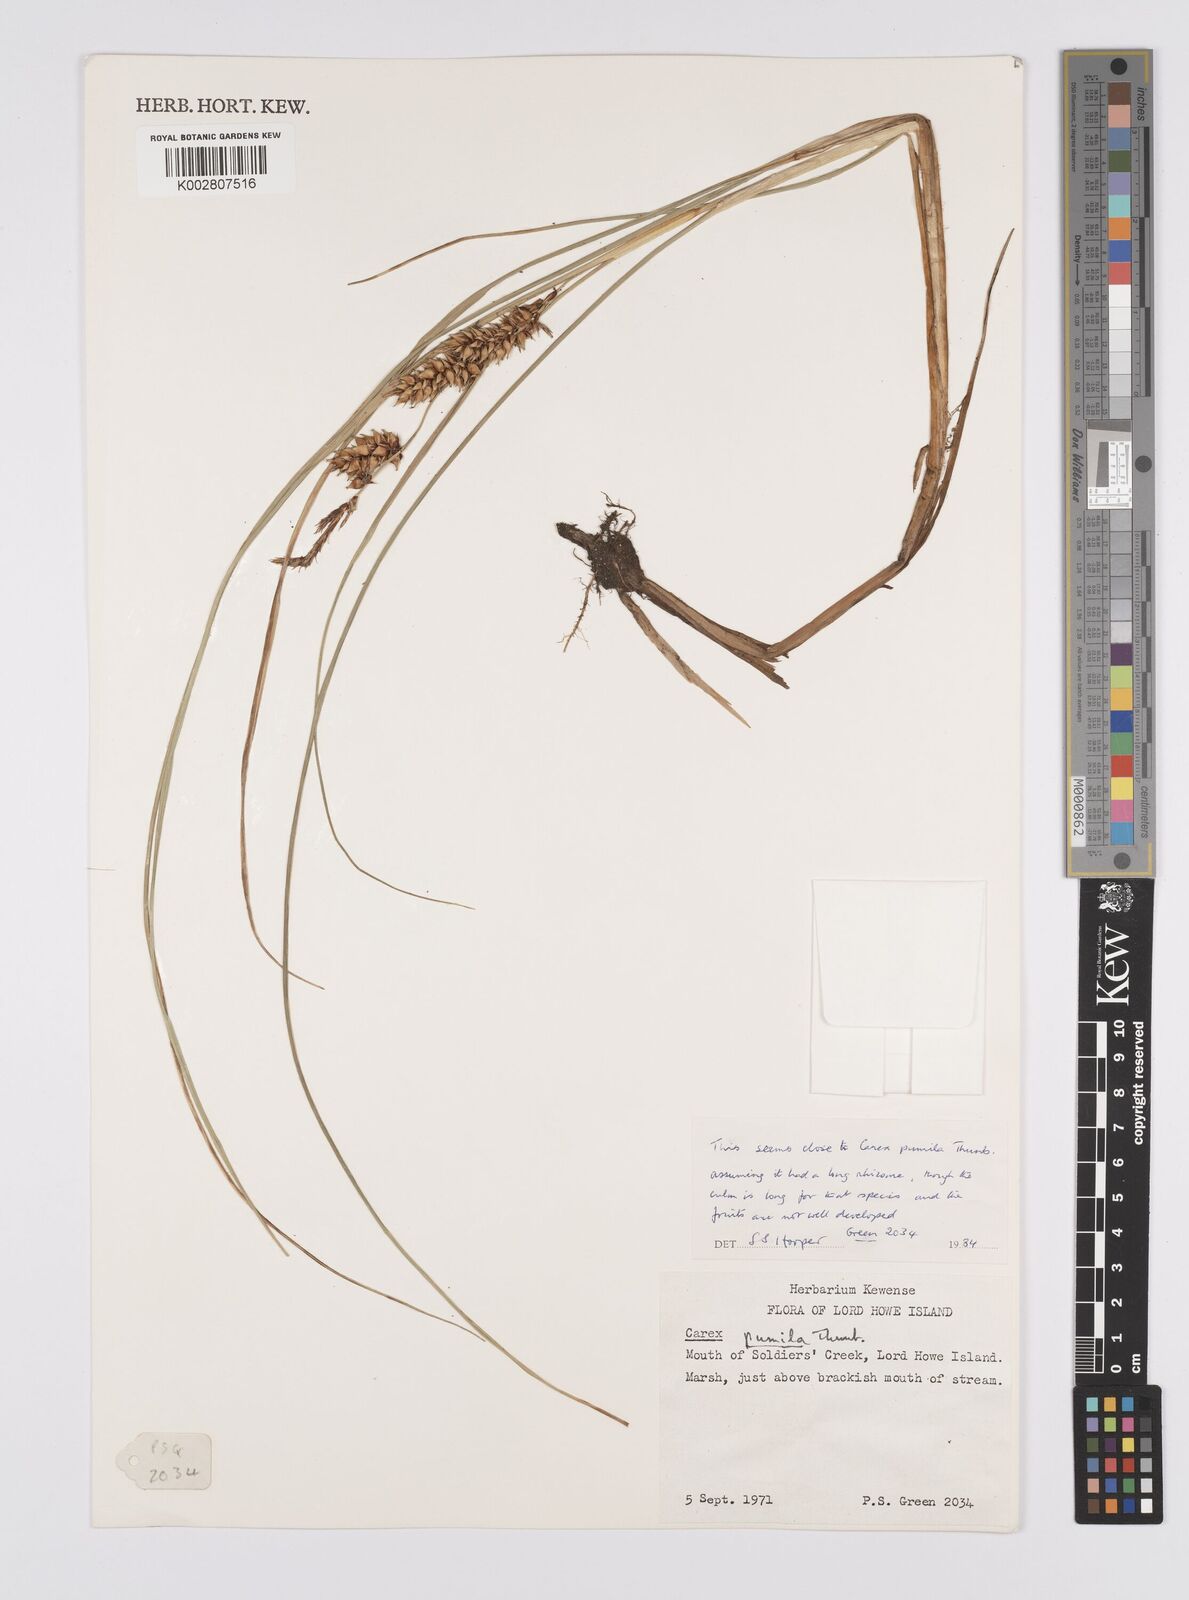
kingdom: Plantae
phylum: Tracheophyta
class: Liliopsida
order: Poales
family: Cyperaceae
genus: Carex
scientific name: Carex pumila
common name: Dwarf sedge
